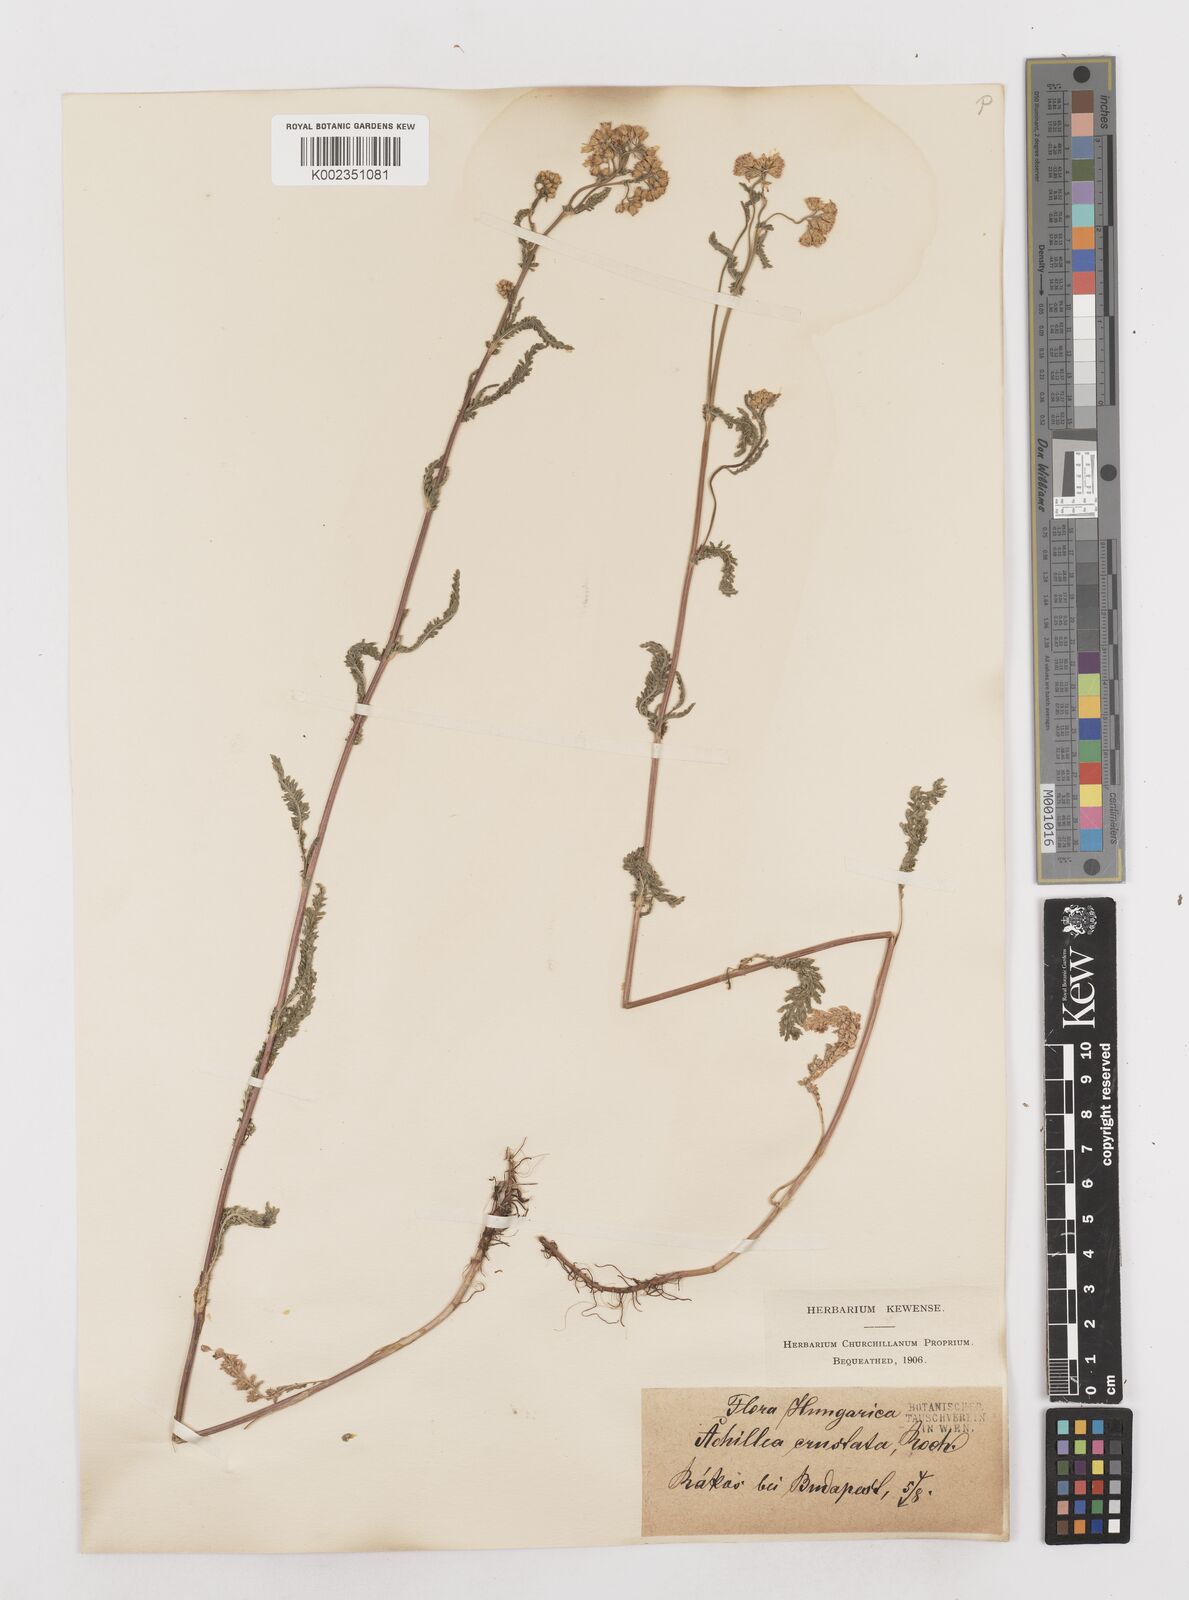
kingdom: Plantae
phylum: Tracheophyta
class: Magnoliopsida
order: Asterales
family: Asteraceae
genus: Achillea
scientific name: Achillea millefolium
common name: Yarrow
